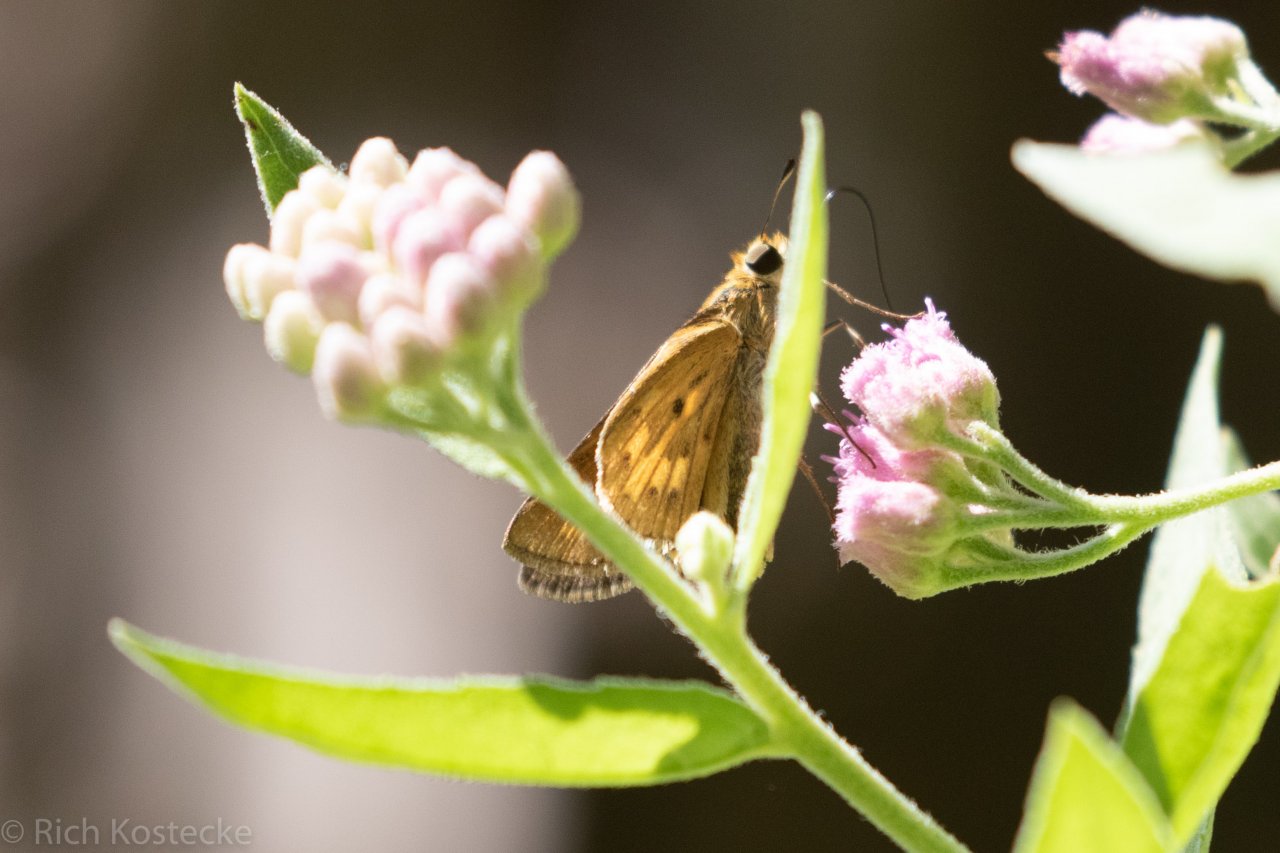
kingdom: Animalia
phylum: Arthropoda
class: Insecta
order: Lepidoptera
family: Hesperiidae
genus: Hylephila
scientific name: Hylephila phyleus
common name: Fiery Skipper
